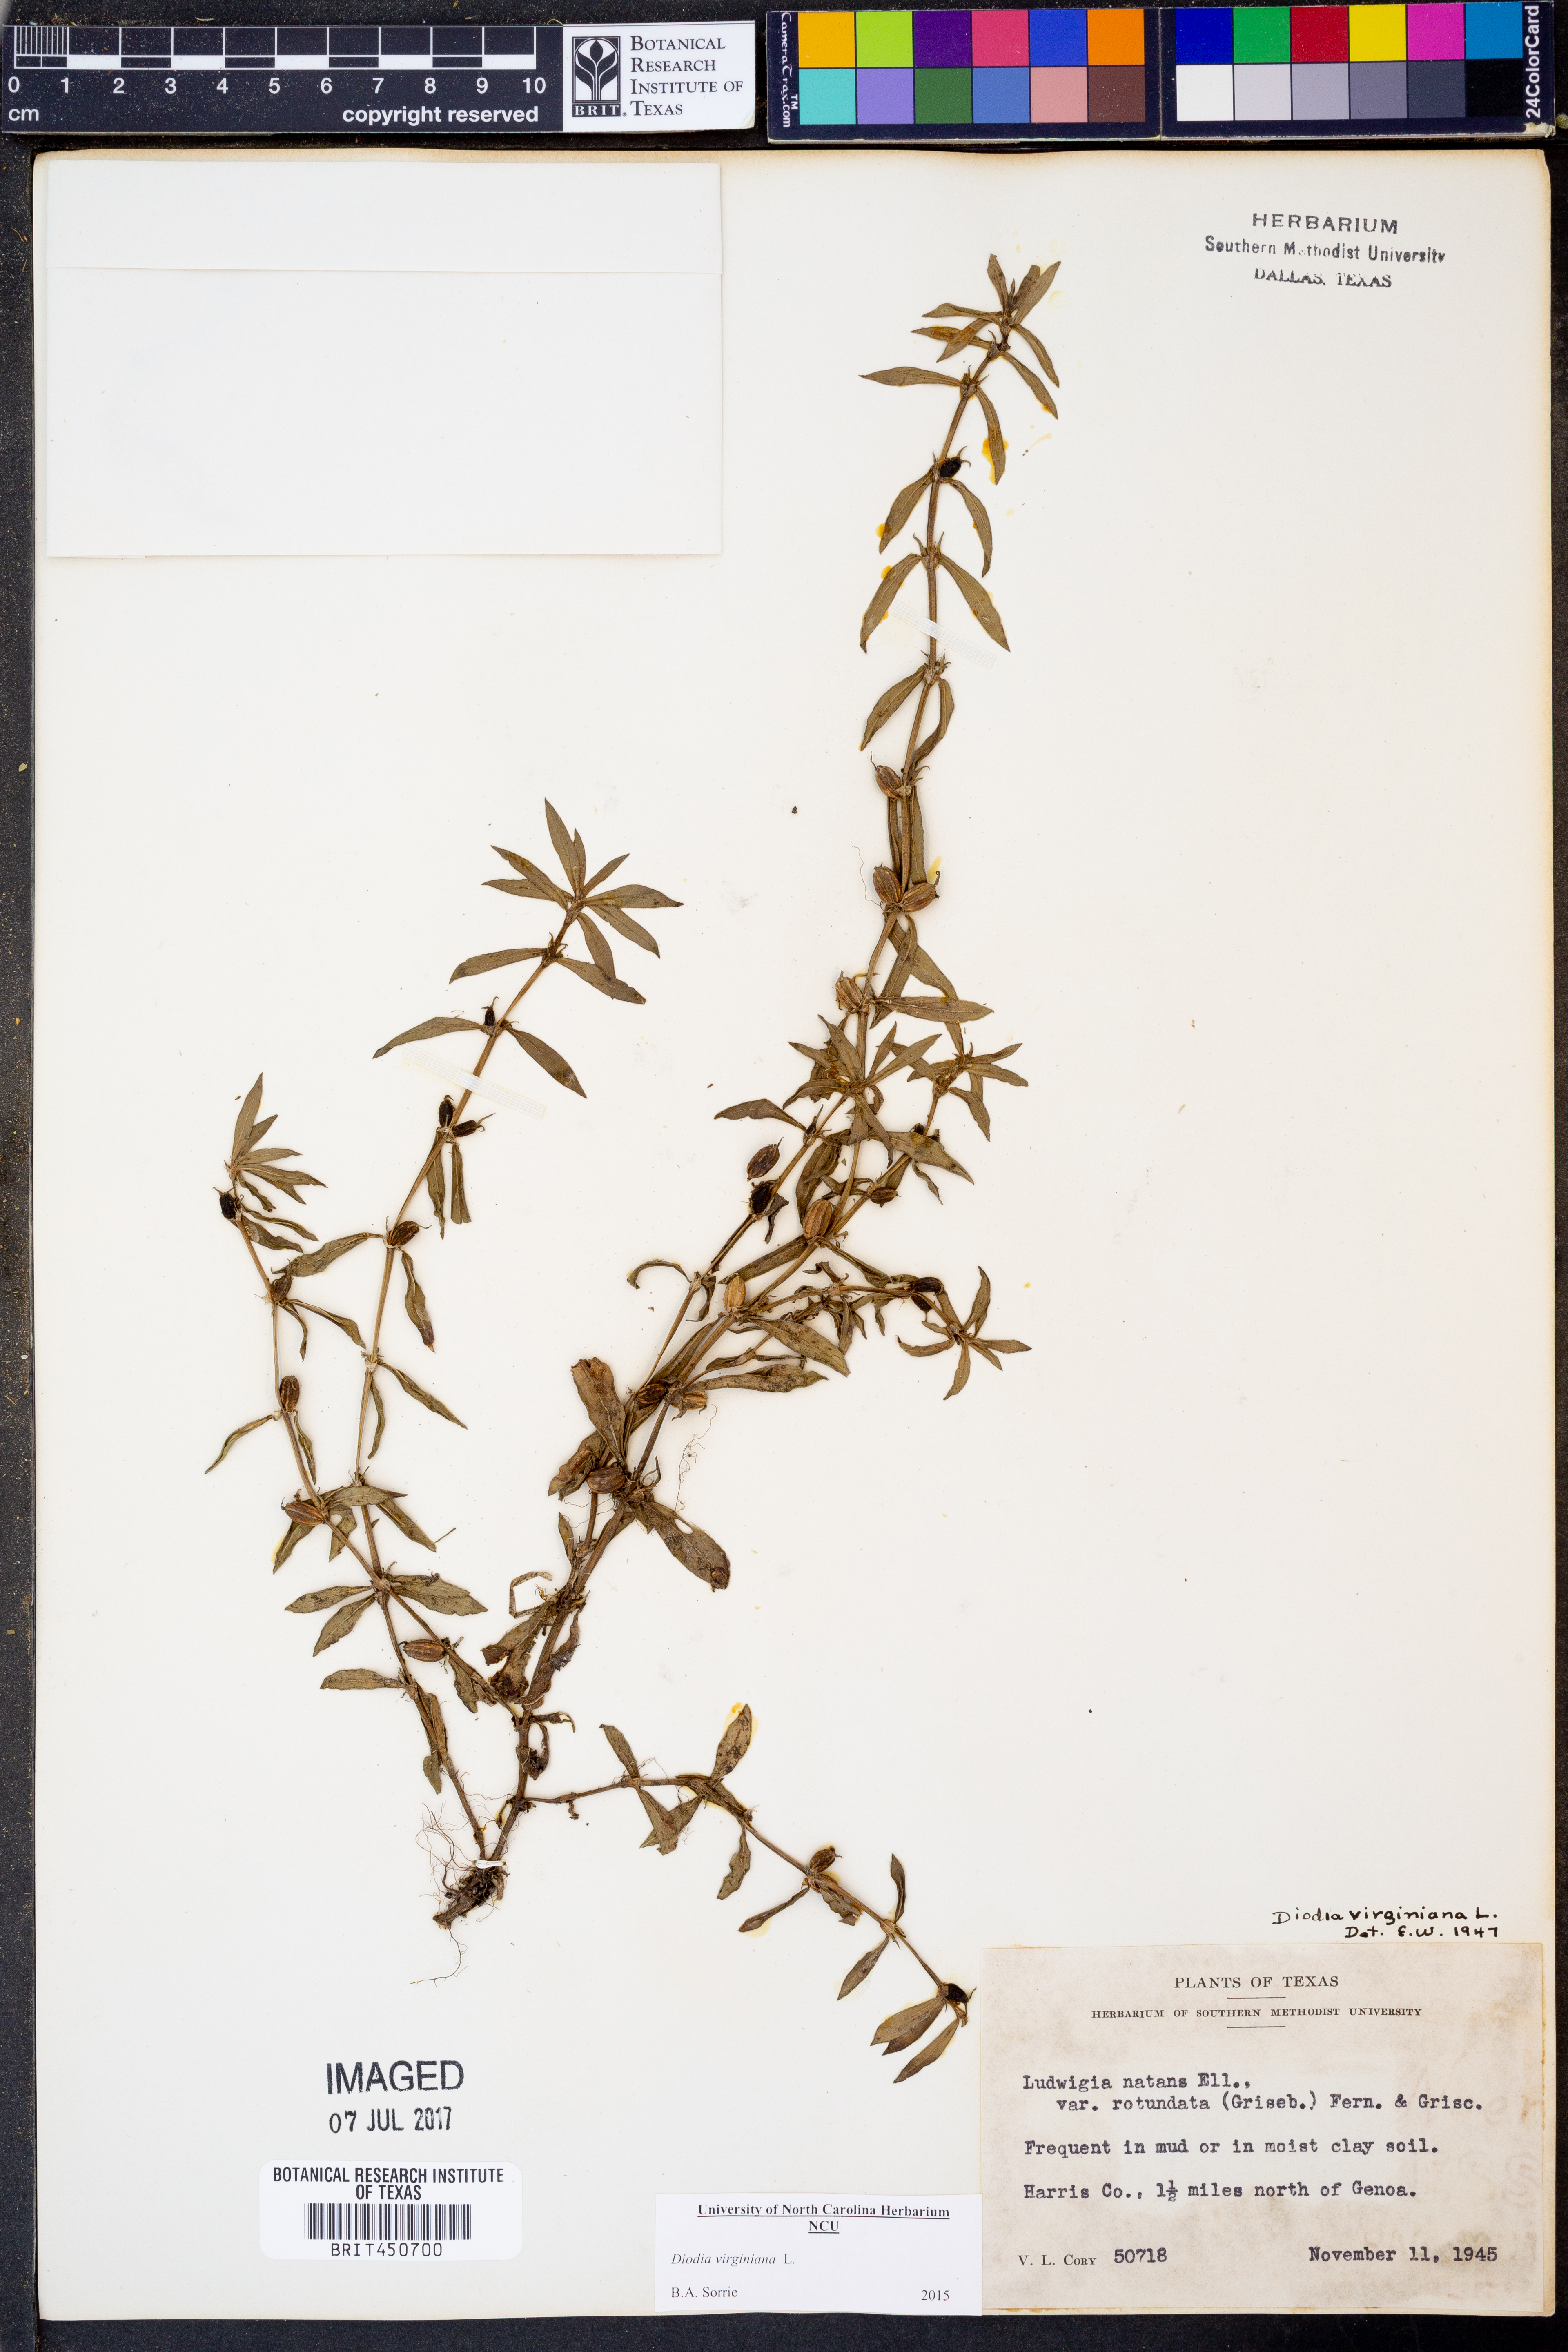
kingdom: Plantae
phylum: Tracheophyta
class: Magnoliopsida
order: Gentianales
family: Rubiaceae
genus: Diodia
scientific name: Diodia virginiana
